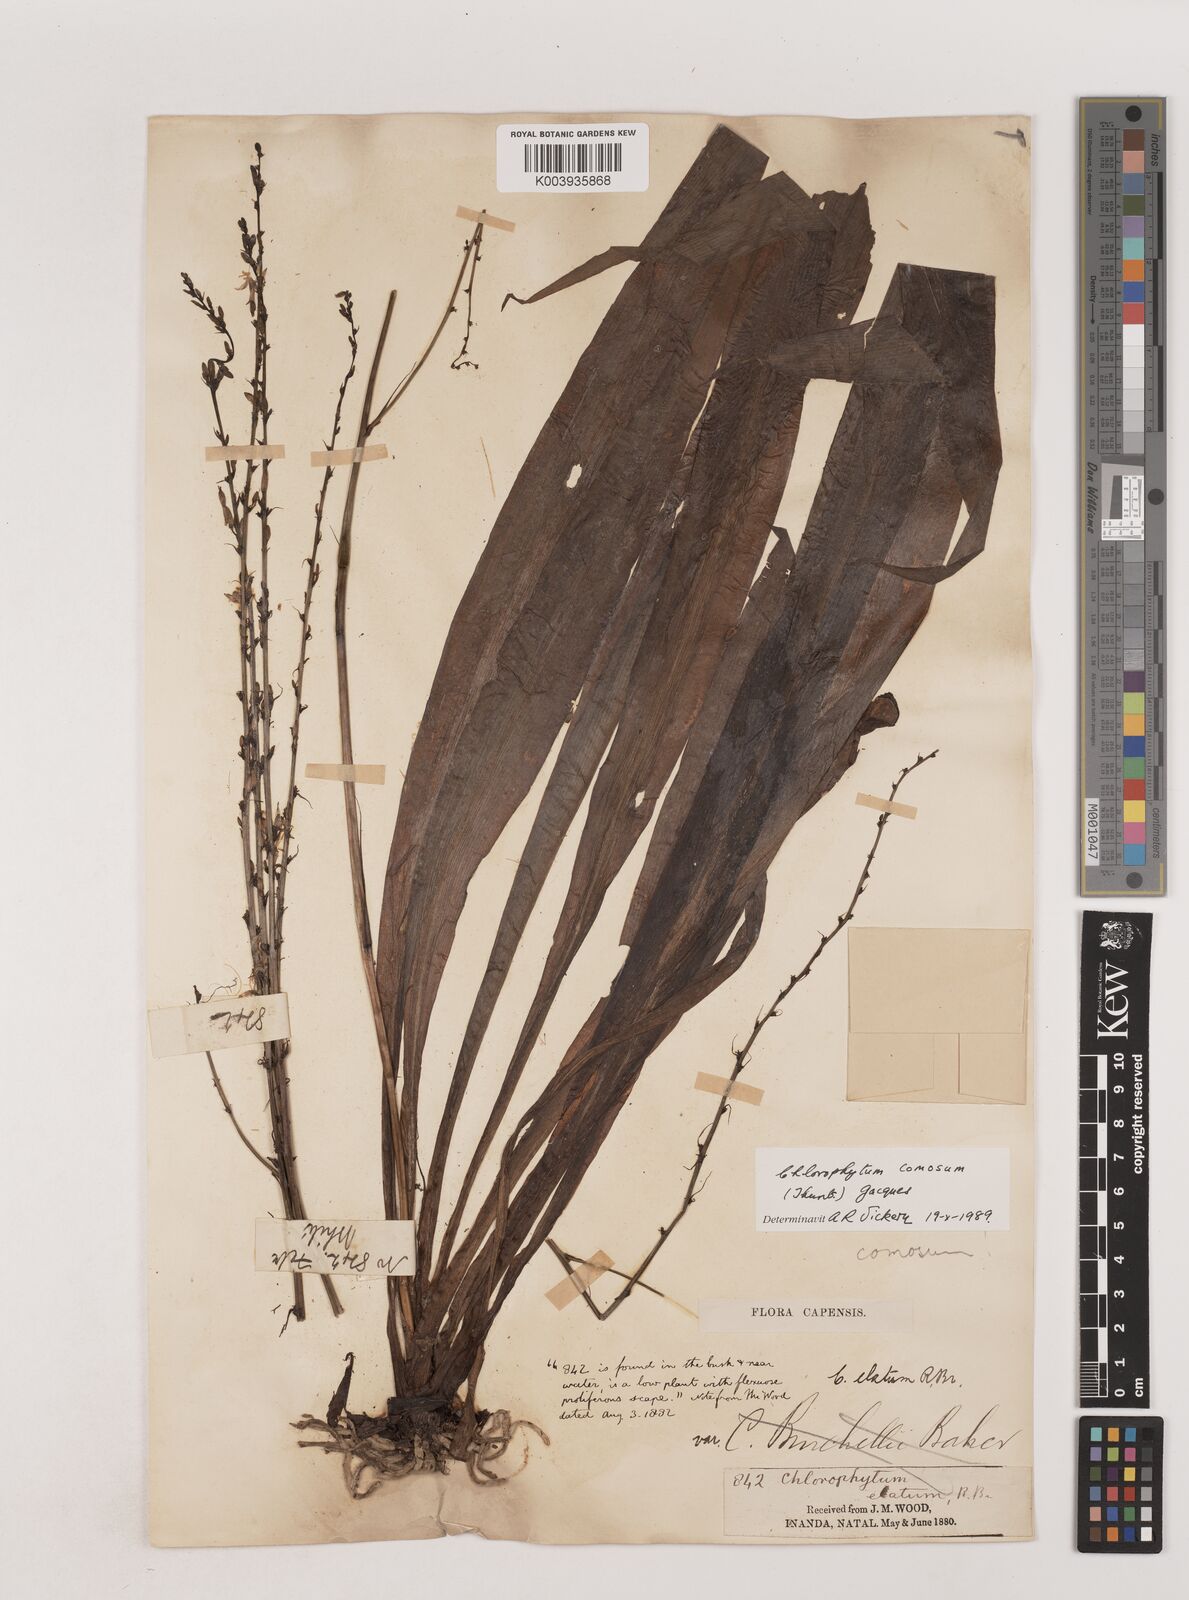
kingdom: Plantae
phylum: Tracheophyta
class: Liliopsida
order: Asparagales
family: Asparagaceae
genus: Chlorophytum
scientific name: Chlorophytum comosum
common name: Spider plant
